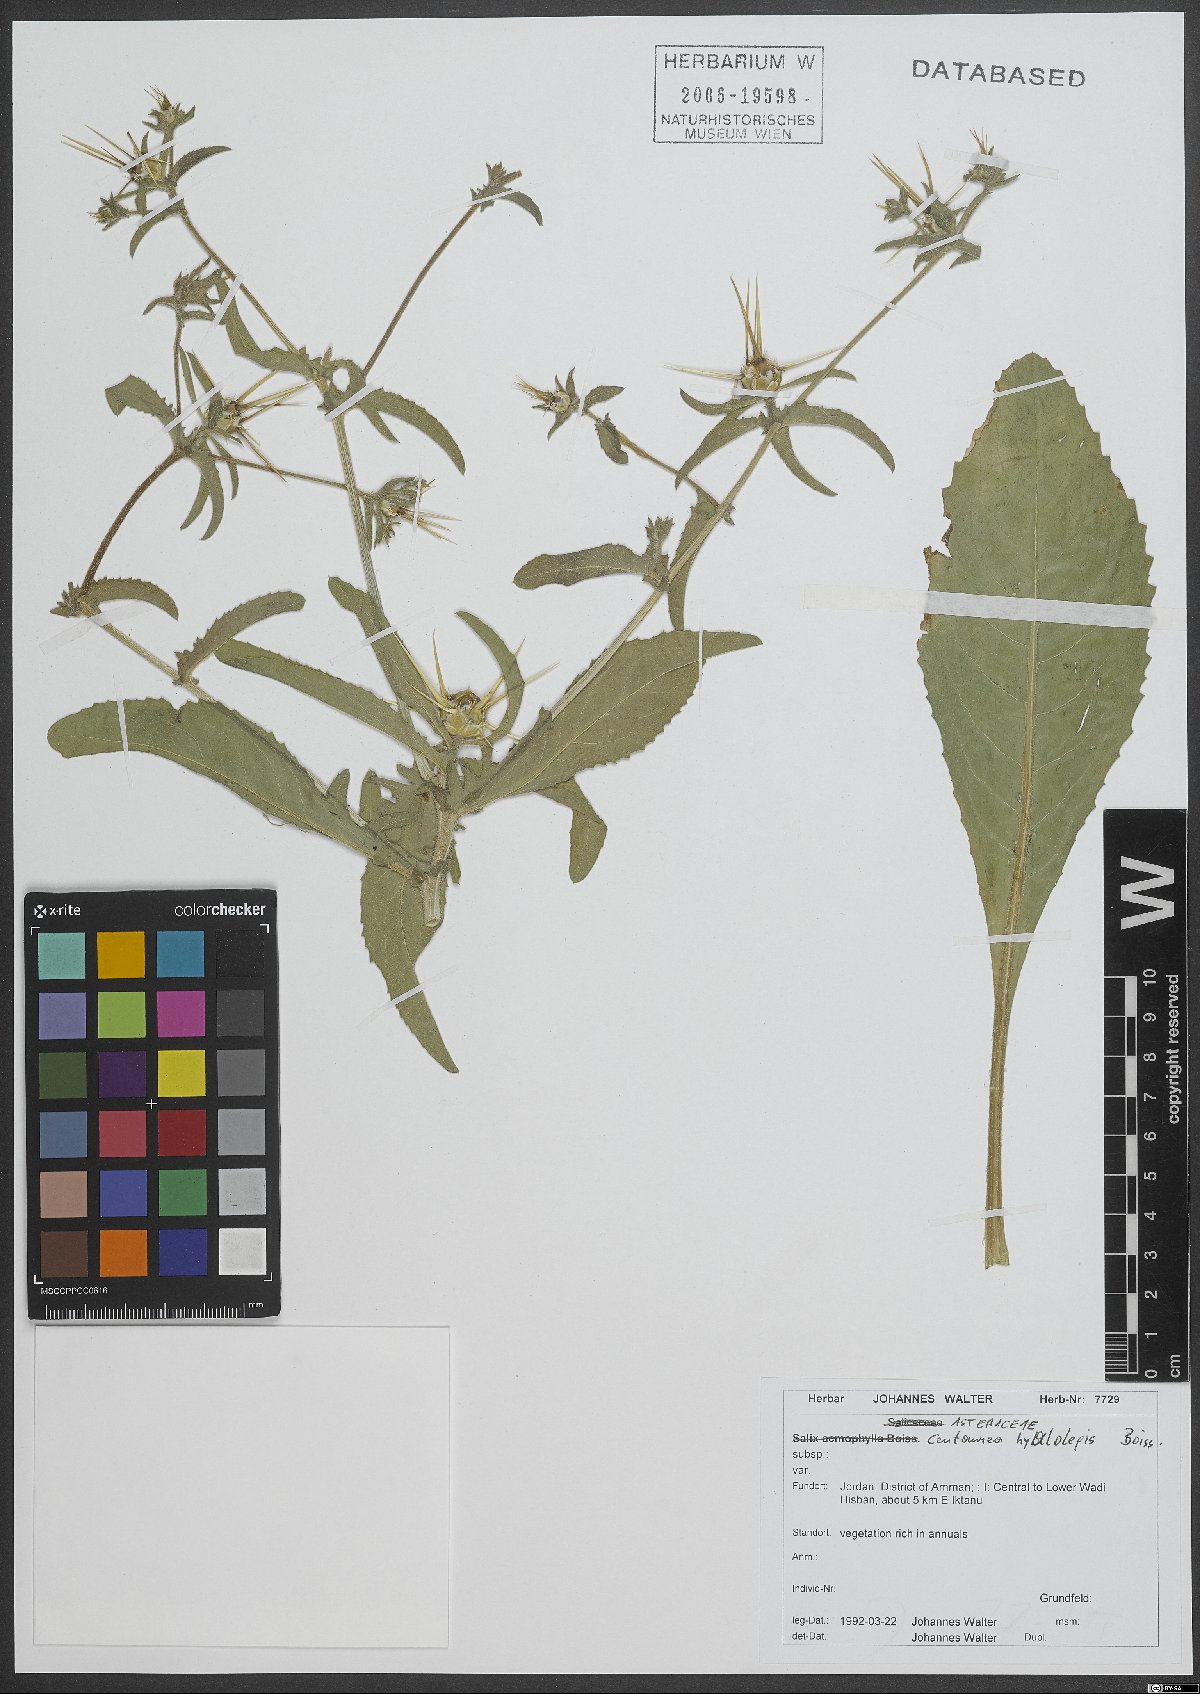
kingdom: Plantae
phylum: Tracheophyta
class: Magnoliopsida
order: Asterales
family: Asteraceae
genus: Centaurea
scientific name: Centaurea hyalolepis
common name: Eastern star-thistle
